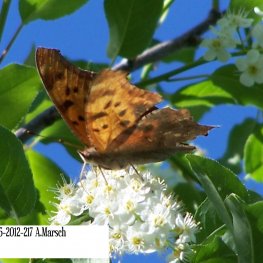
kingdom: Animalia
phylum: Arthropoda
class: Insecta
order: Lepidoptera
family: Nymphalidae
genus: Polygonia
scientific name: Polygonia interrogationis
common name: Question Mark
